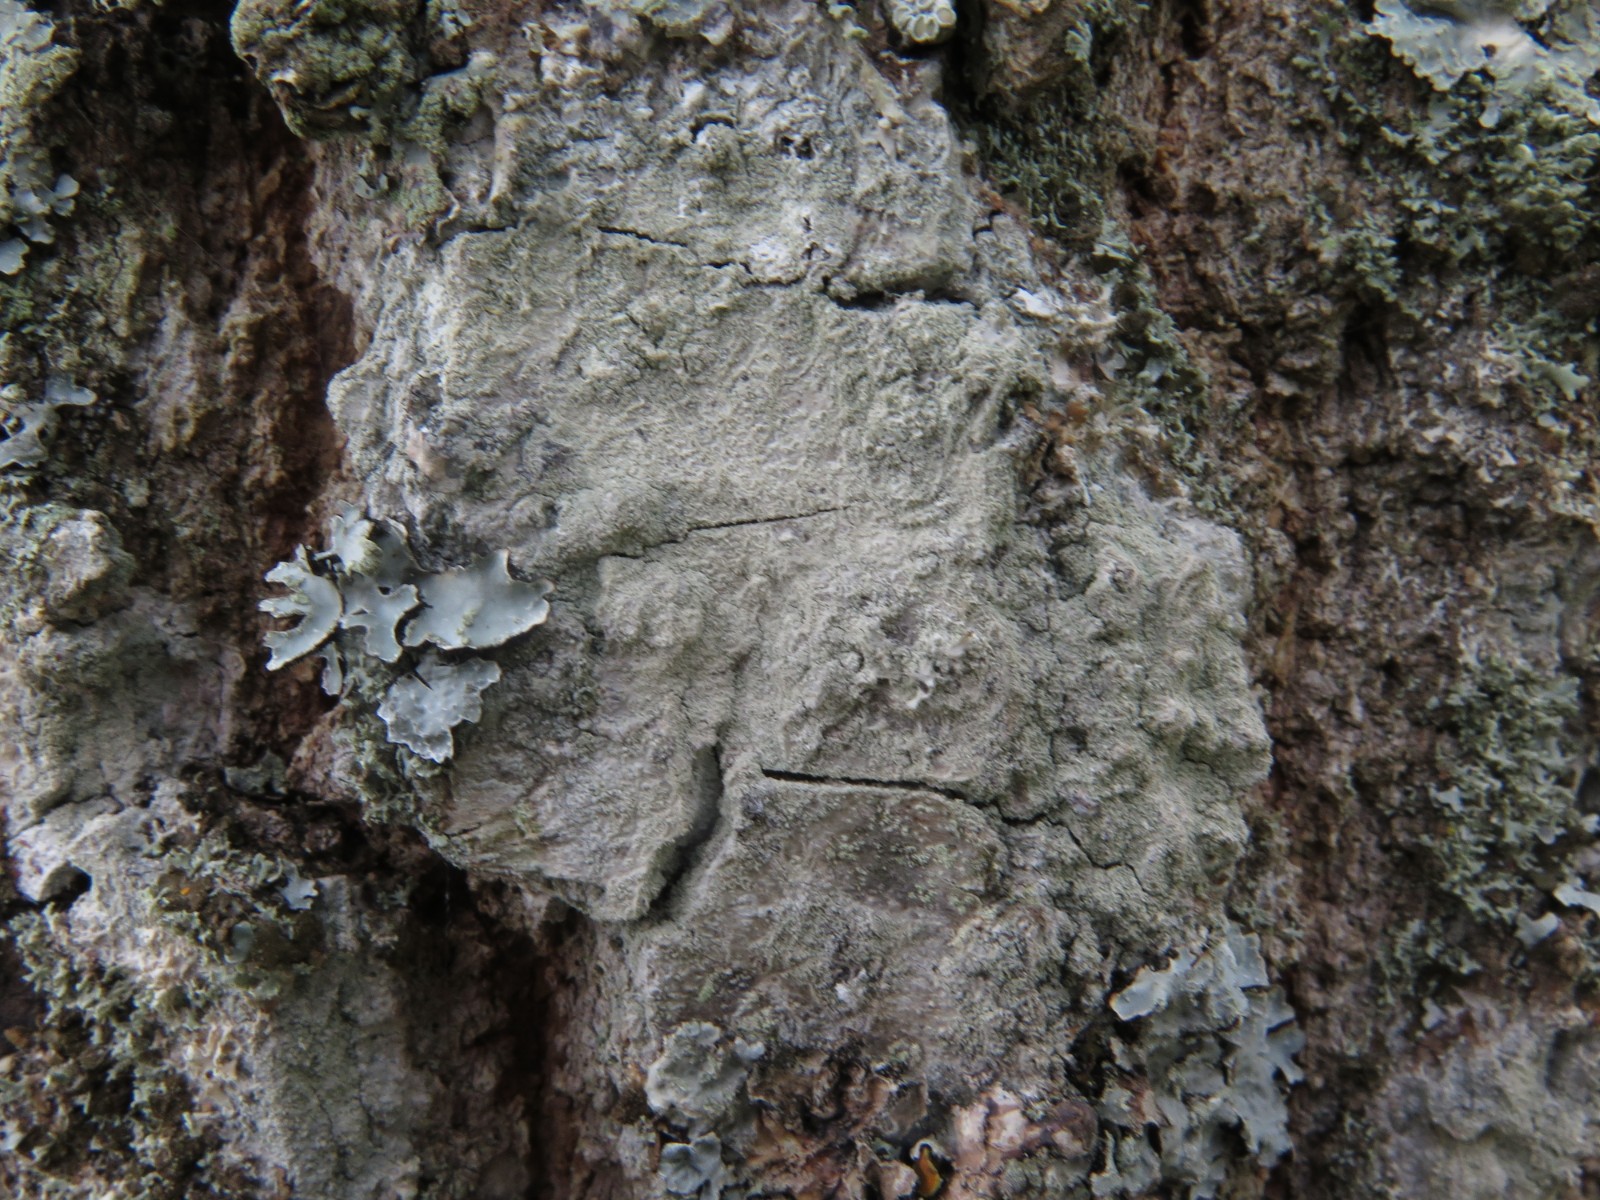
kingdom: Fungi
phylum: Ascomycota
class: Lecanoromycetes
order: Ostropales
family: Phlyctidaceae
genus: Phlyctis
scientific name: Phlyctis argena
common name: almindelig sølvlav
